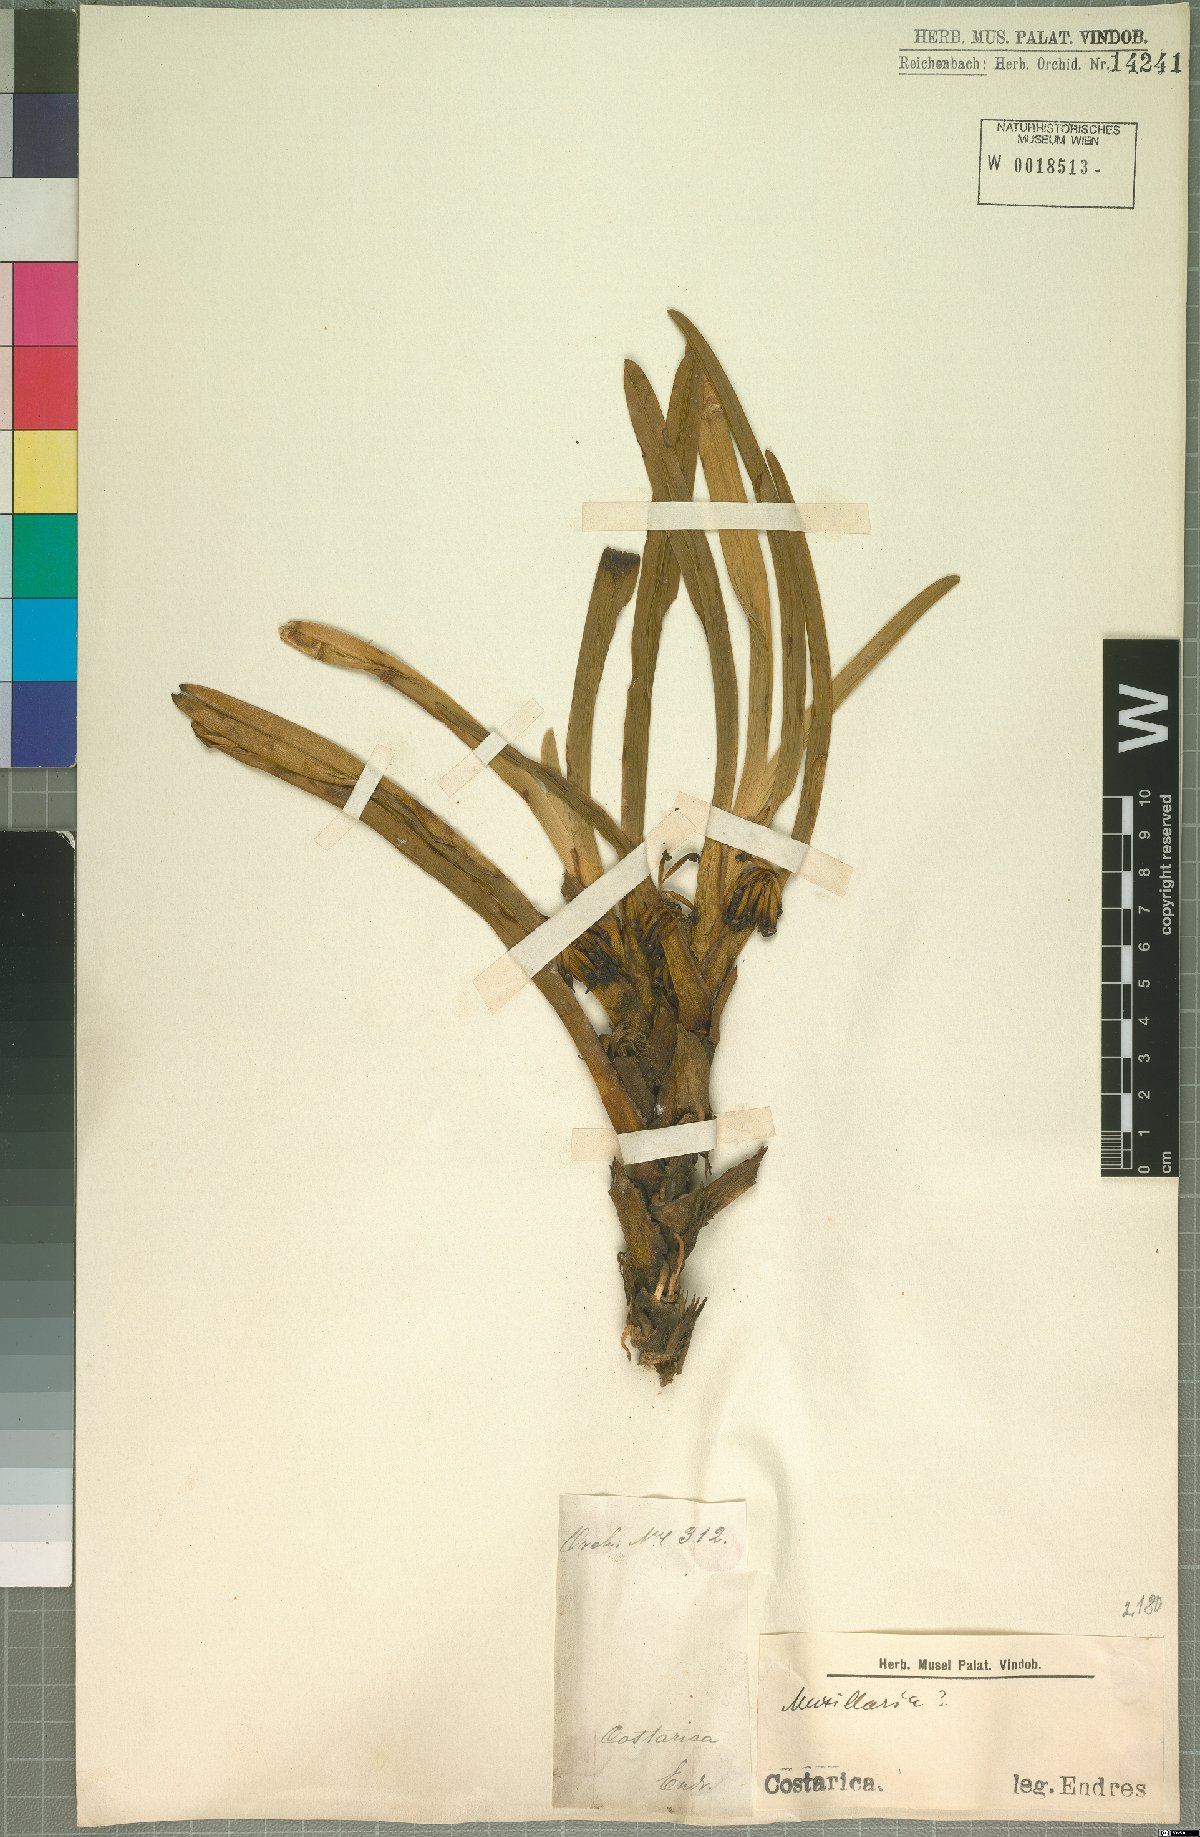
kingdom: Plantae
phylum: Tracheophyta
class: Liliopsida
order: Asparagales
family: Orchidaceae
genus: Maxillaria
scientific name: Maxillaria
